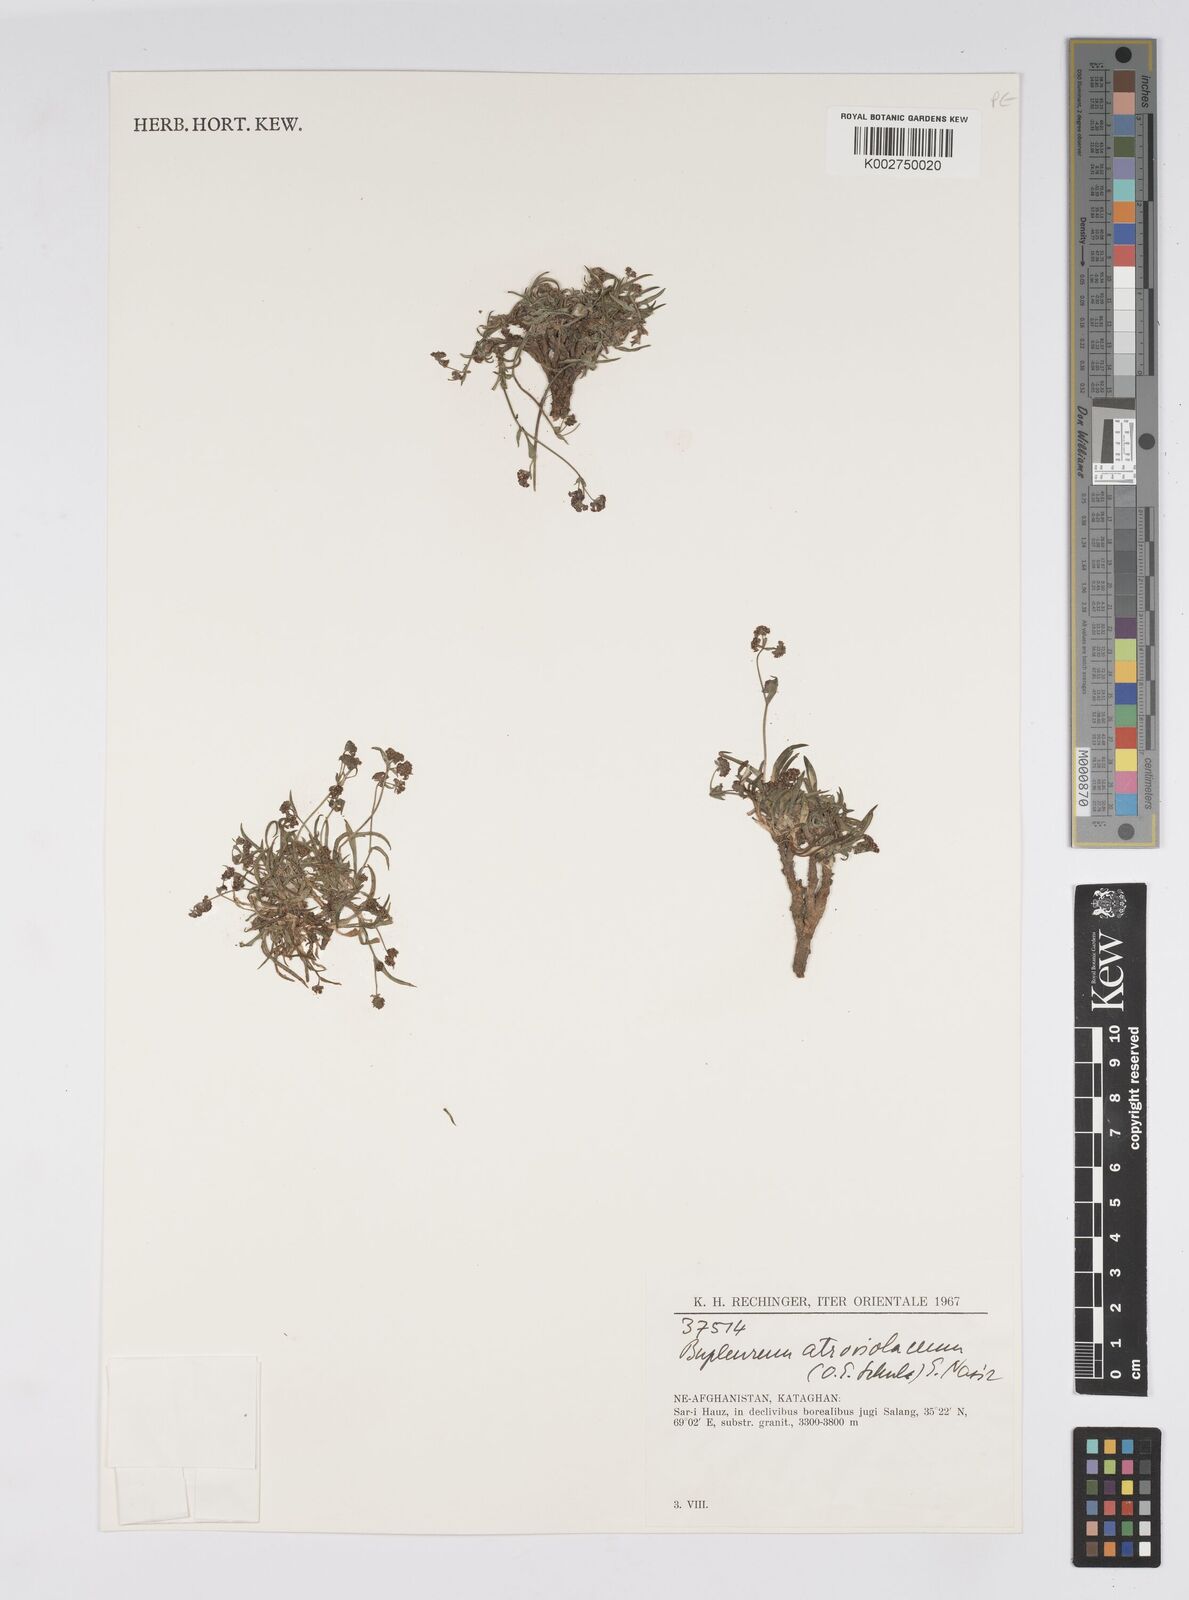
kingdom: Plantae
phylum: Tracheophyta
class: Magnoliopsida
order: Apiales
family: Apiaceae
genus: Bupleurum
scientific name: Bupleurum rupestre
